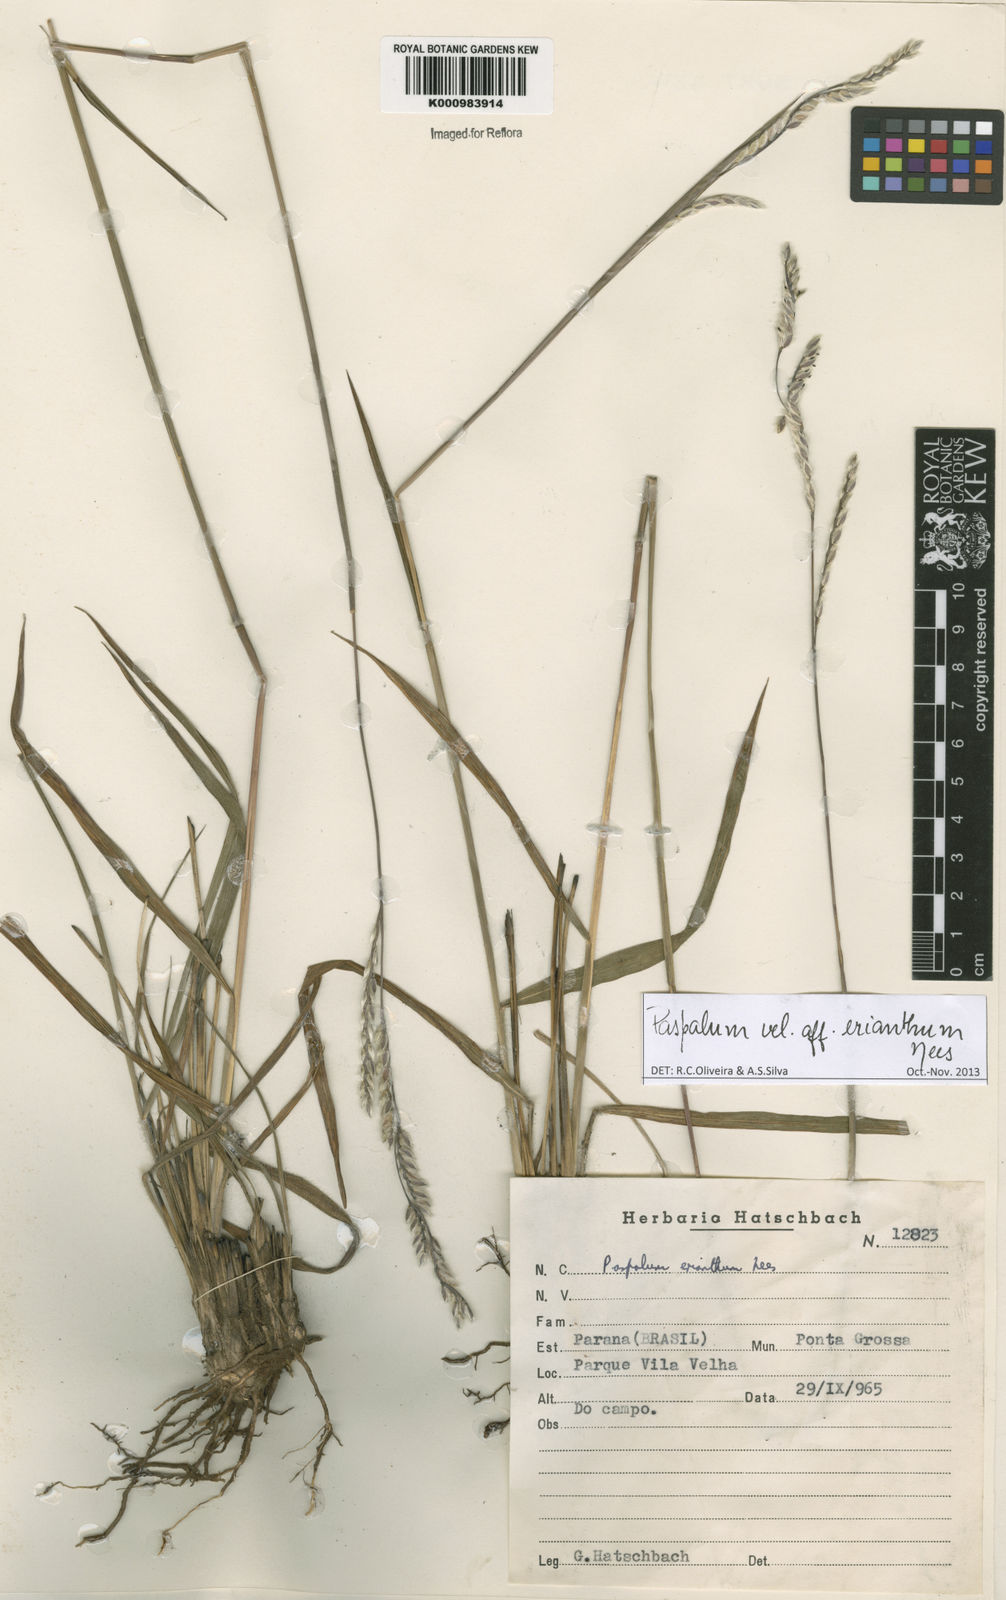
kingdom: Plantae
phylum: Tracheophyta
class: Liliopsida
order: Poales
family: Poaceae
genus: Paspalum
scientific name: Paspalum erianthum
